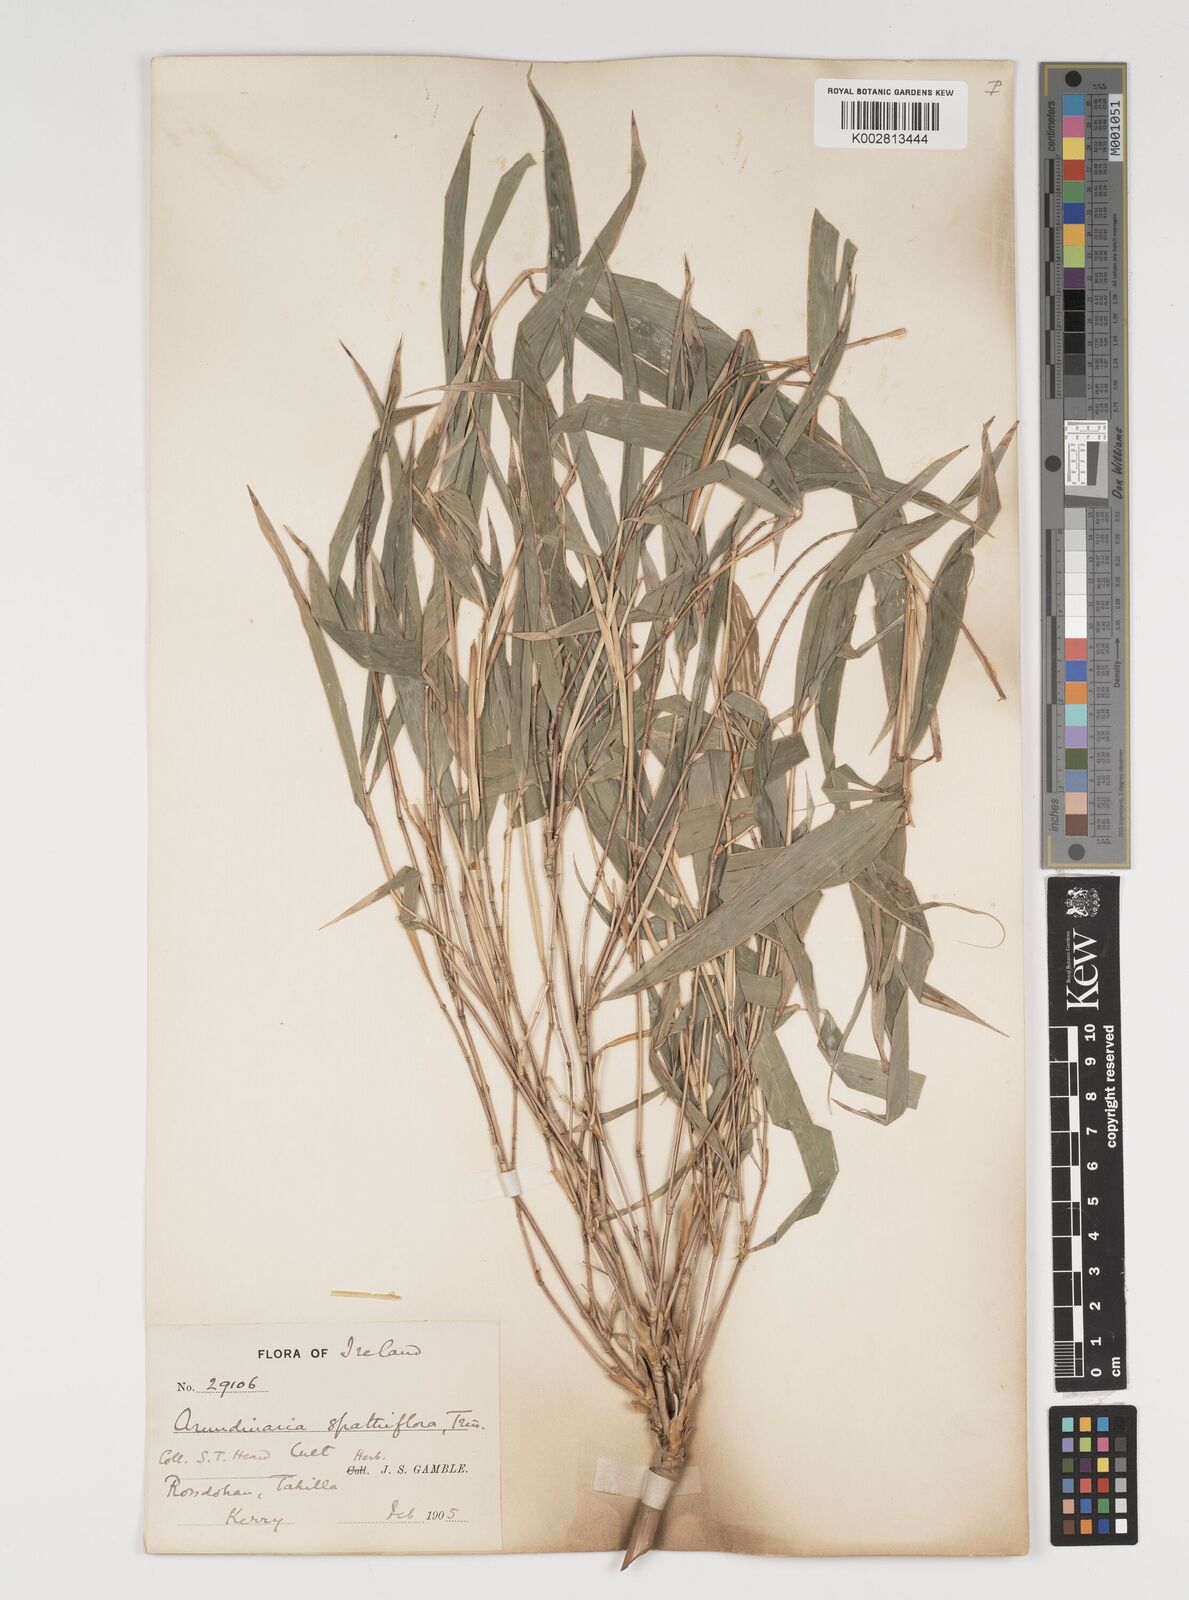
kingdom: Plantae
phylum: Tracheophyta
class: Liliopsida
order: Poales
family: Poaceae
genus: Thamnocalamus
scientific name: Thamnocalamus spathiflorus
